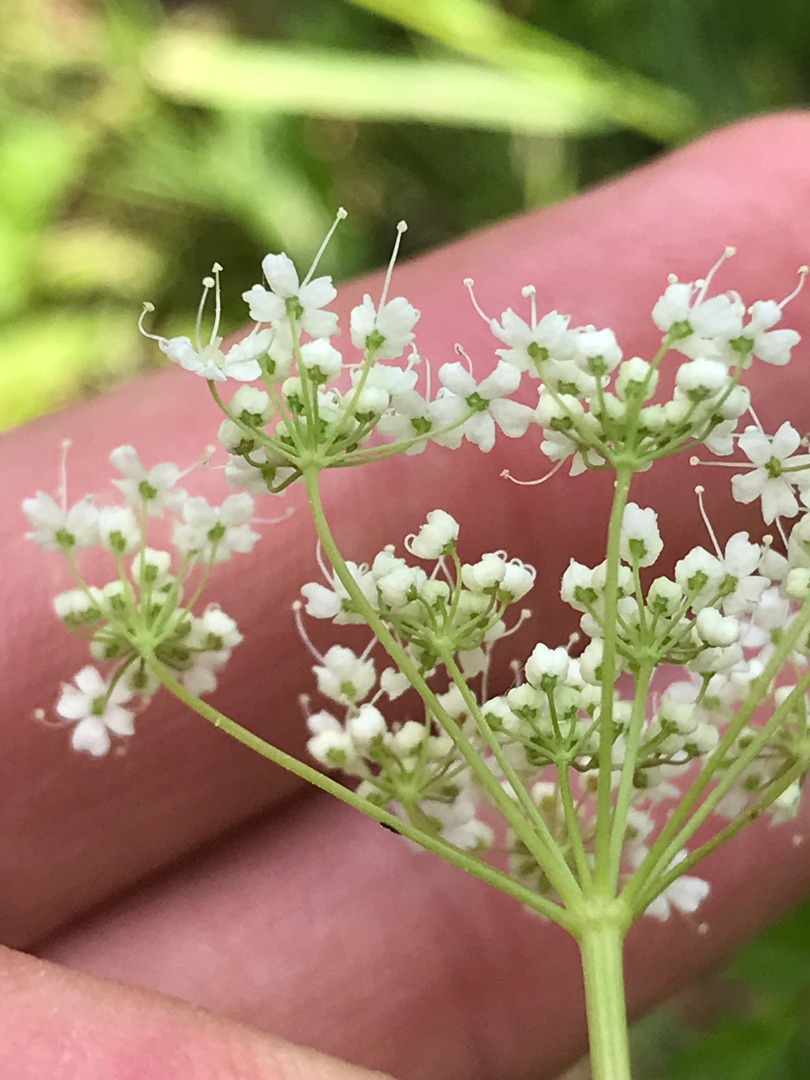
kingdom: Plantae
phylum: Tracheophyta
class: Magnoliopsida
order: Apiales
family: Apiaceae
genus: Pimpinella
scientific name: Pimpinella major
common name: Stor pimpinelle
